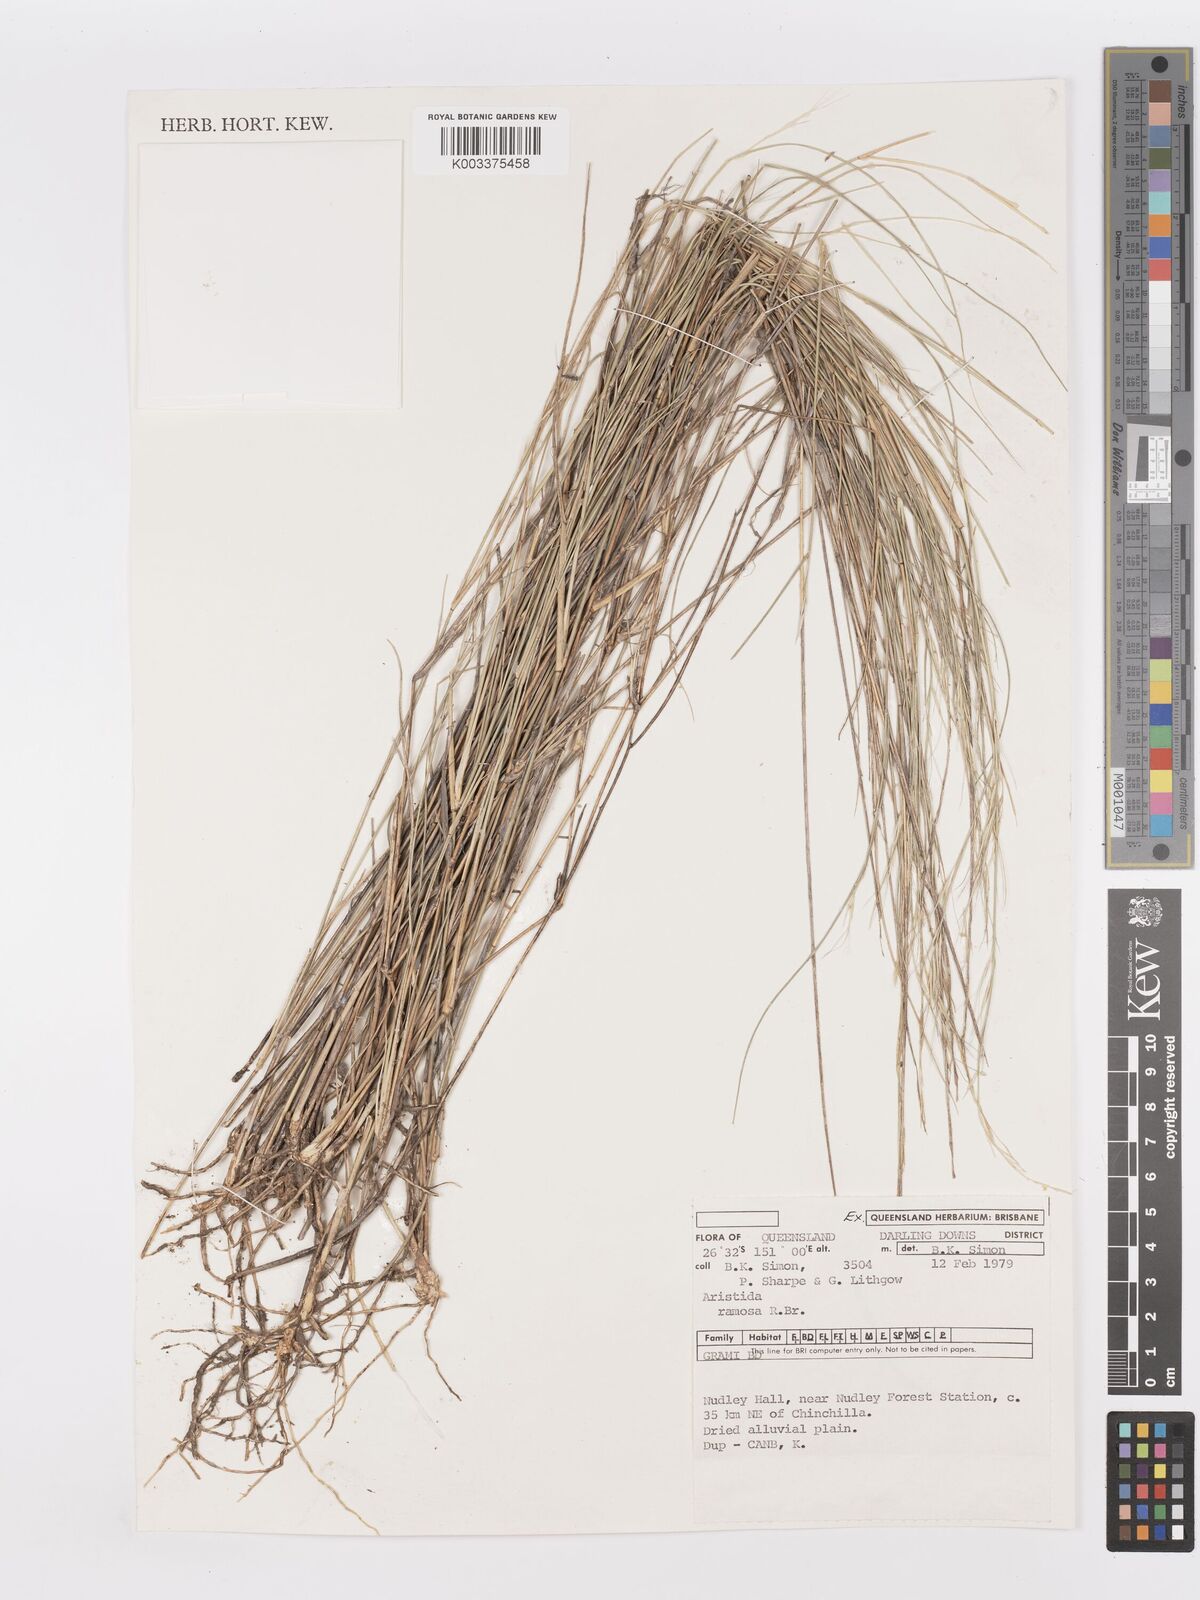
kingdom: Plantae
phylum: Tracheophyta
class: Liliopsida
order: Poales
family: Poaceae
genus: Aristida
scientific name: Aristida ramosa
